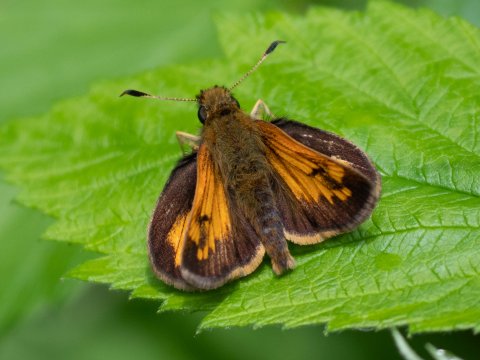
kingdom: Animalia
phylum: Arthropoda
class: Insecta
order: Lepidoptera
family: Hesperiidae
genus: Lon
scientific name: Lon hobomok
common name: Hobomok Skipper
